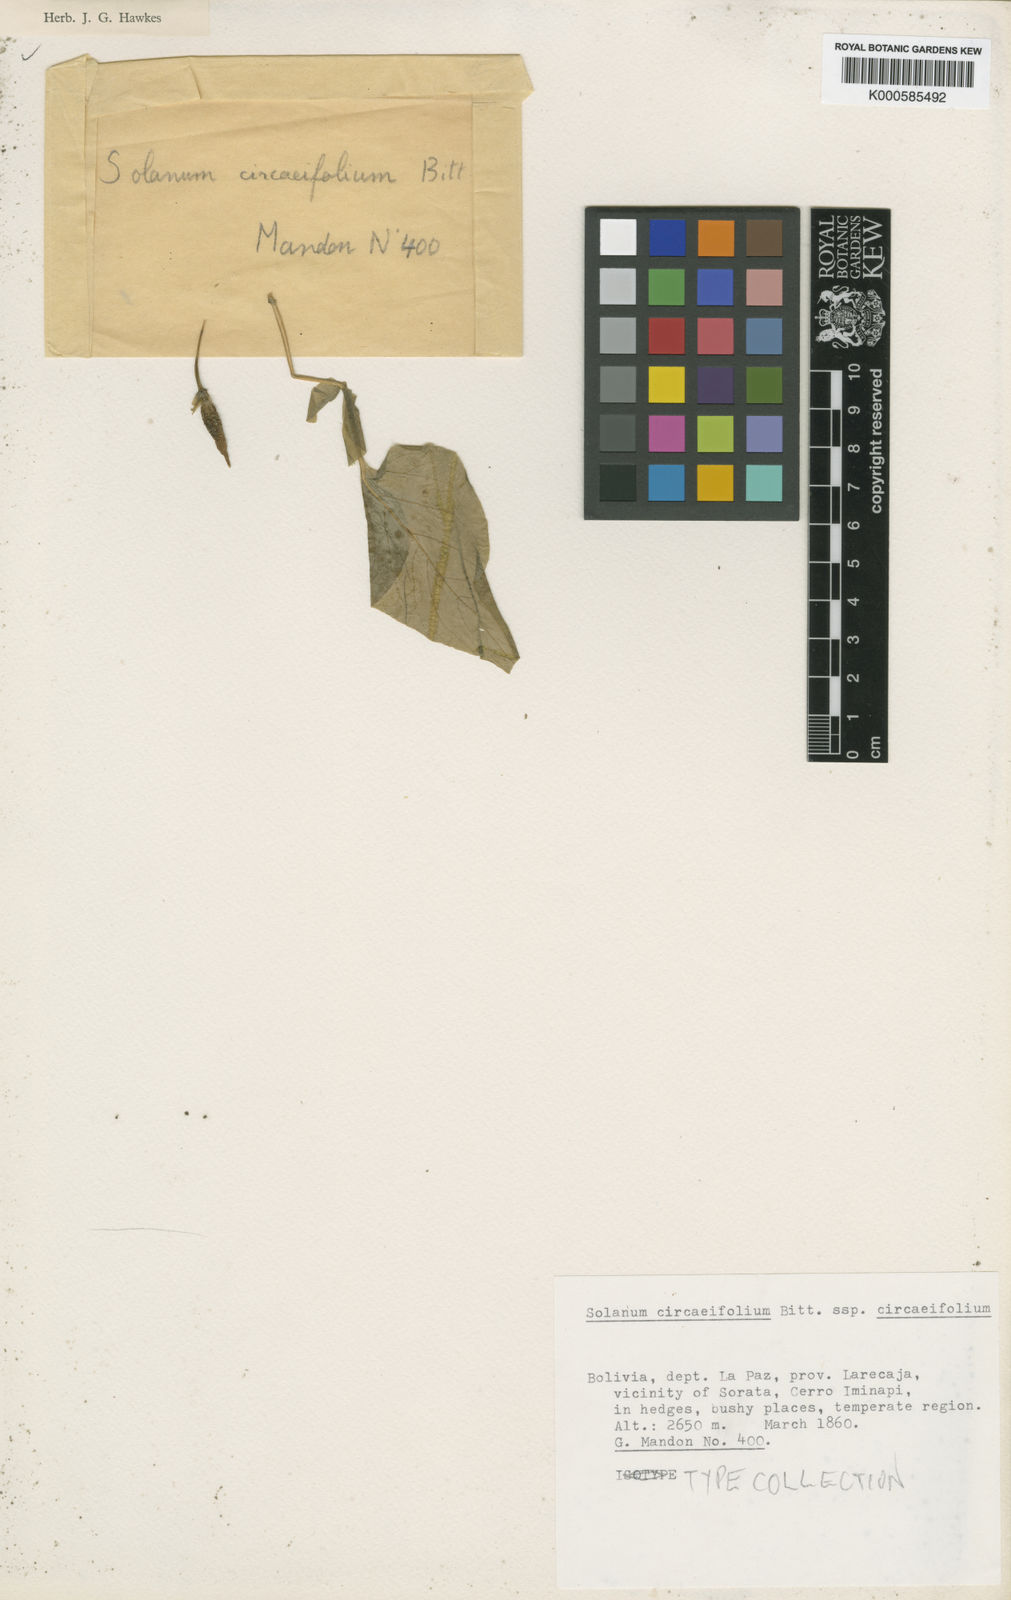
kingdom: Plantae
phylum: Tracheophyta
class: Magnoliopsida
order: Solanales
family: Solanaceae
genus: Solanum
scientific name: Solanum stipuloideum
